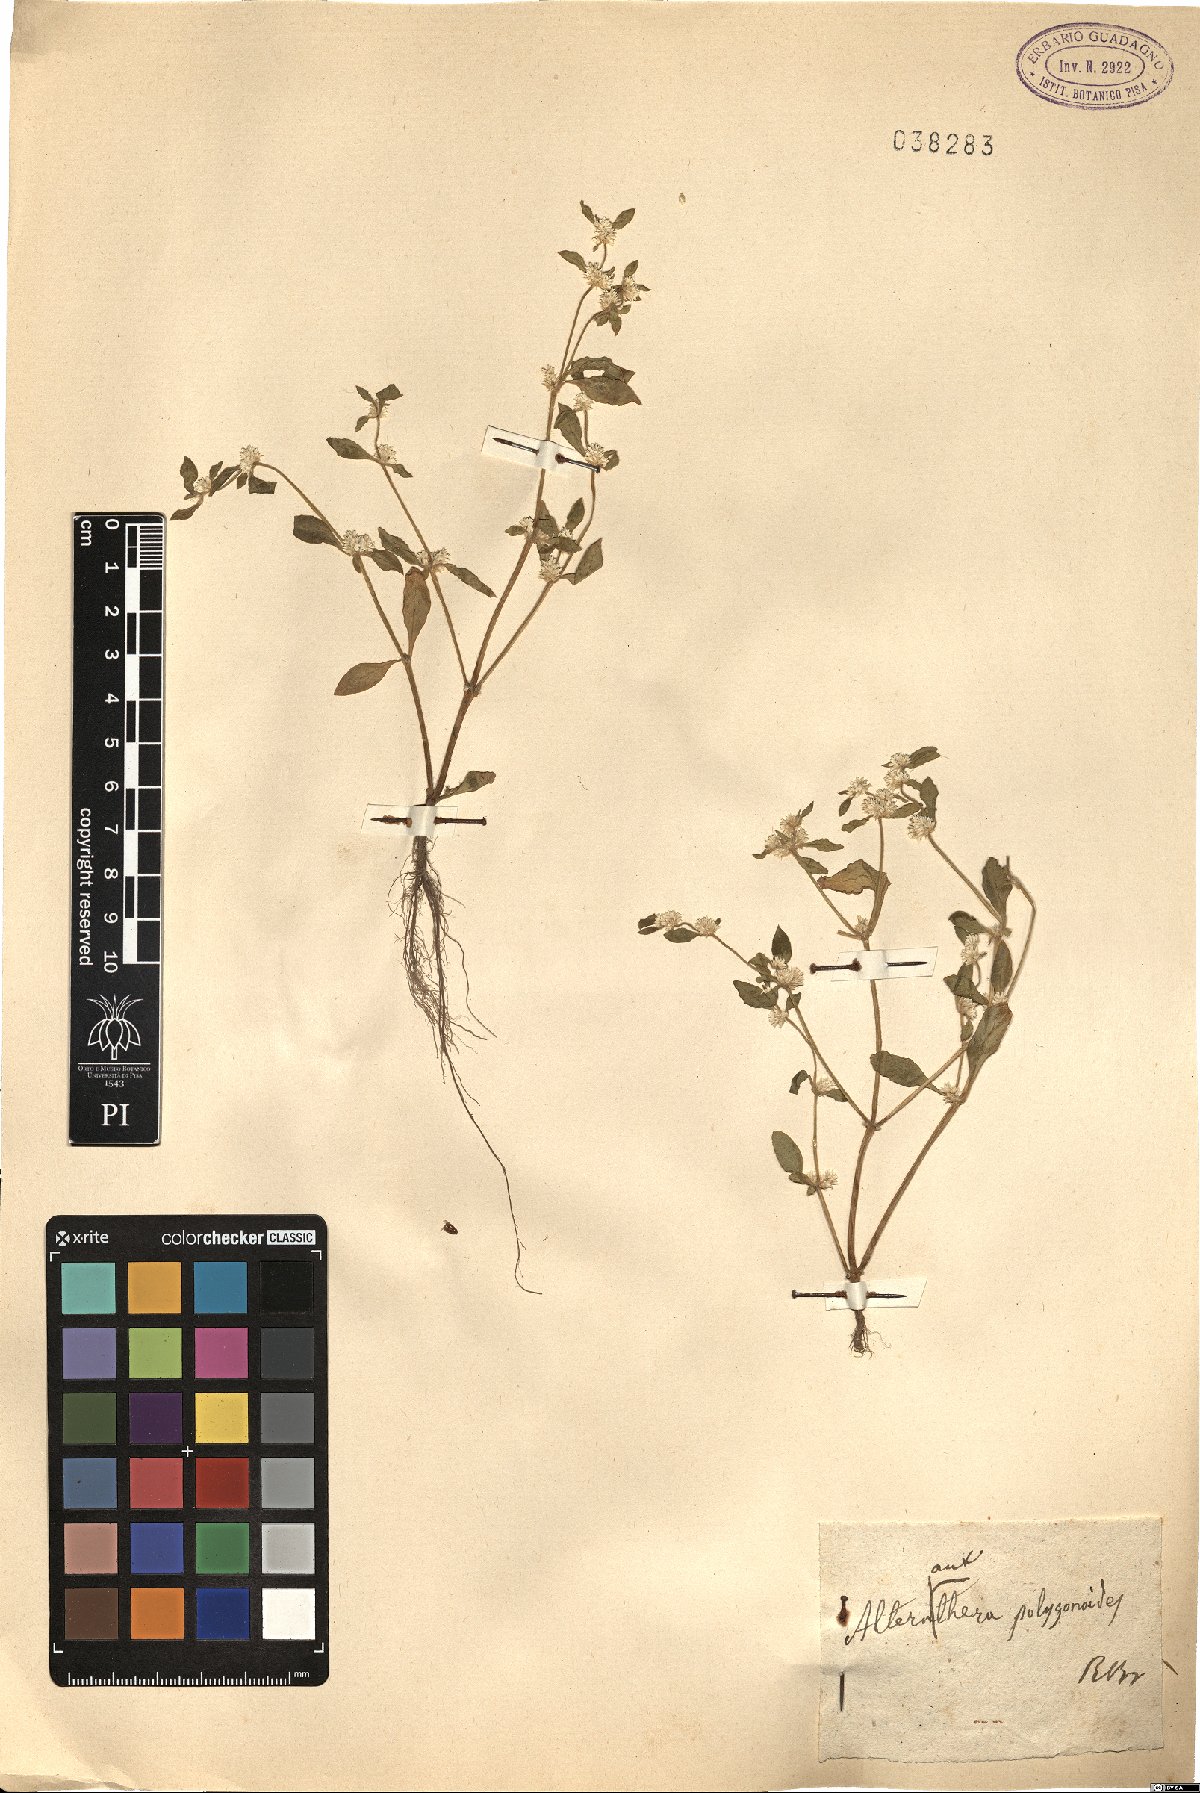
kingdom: Plantae
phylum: Tracheophyta
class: Magnoliopsida
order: Caryophyllales
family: Amaranthaceae
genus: Alternanthera
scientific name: Alternanthera sessilis
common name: Sessile joyweed
